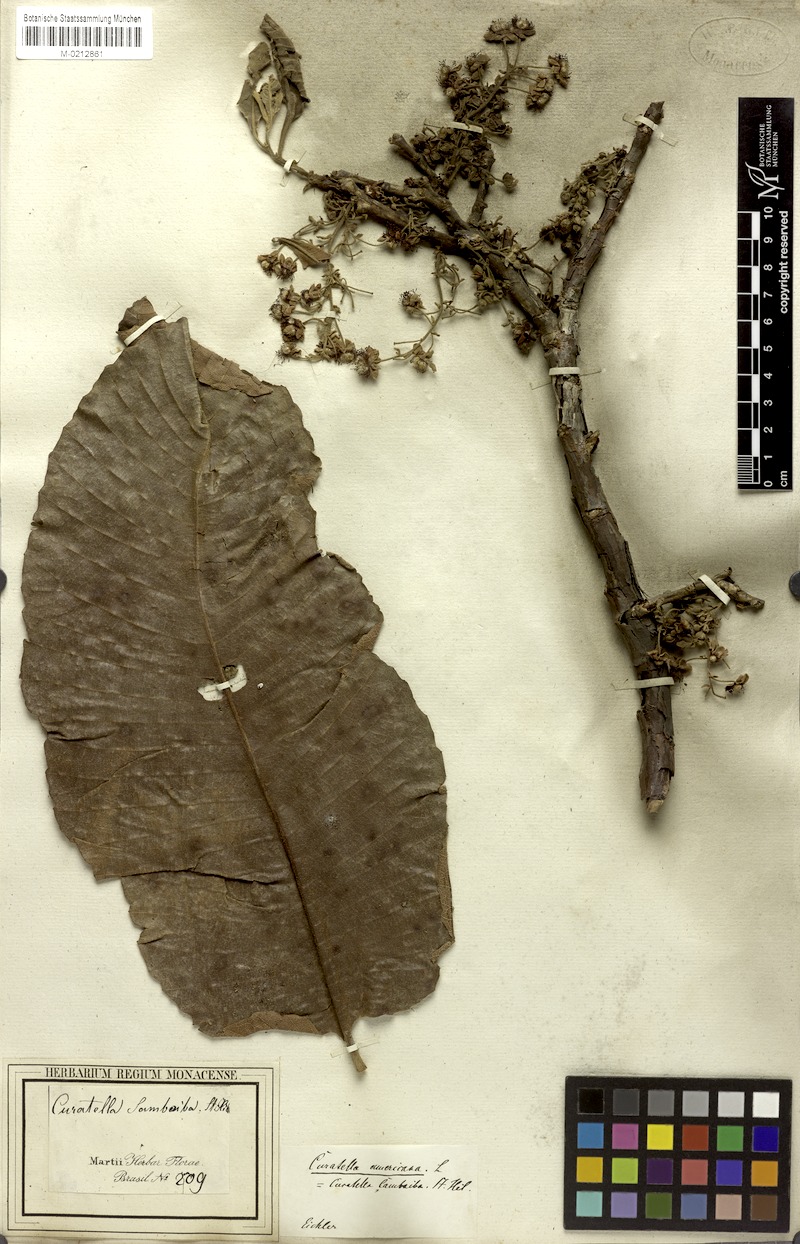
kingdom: Plantae
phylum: Tracheophyta
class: Magnoliopsida
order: Dilleniales
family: Dilleniaceae
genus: Curatella
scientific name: Curatella americana
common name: Sandpaper tree
